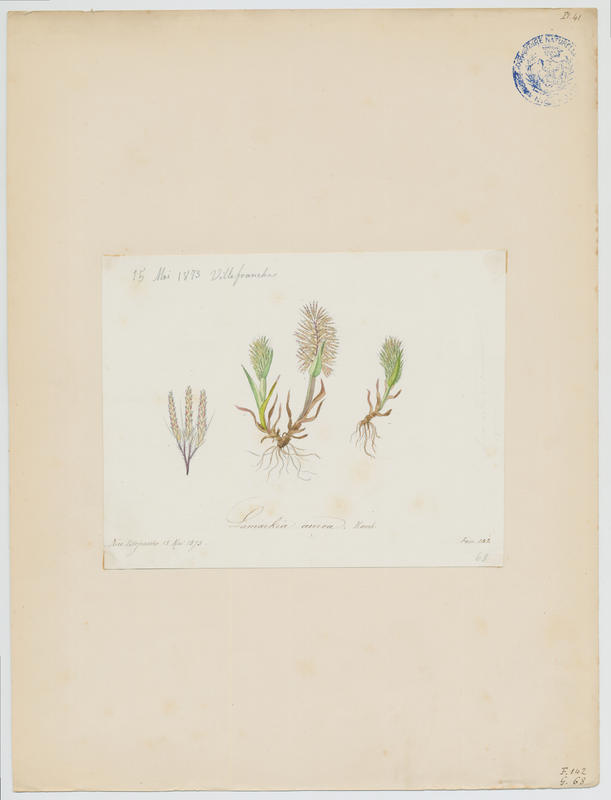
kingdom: Plantae
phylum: Tracheophyta
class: Liliopsida
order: Poales
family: Poaceae
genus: Lamarckia
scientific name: Lamarckia aurea
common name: Golden dog's-tail
